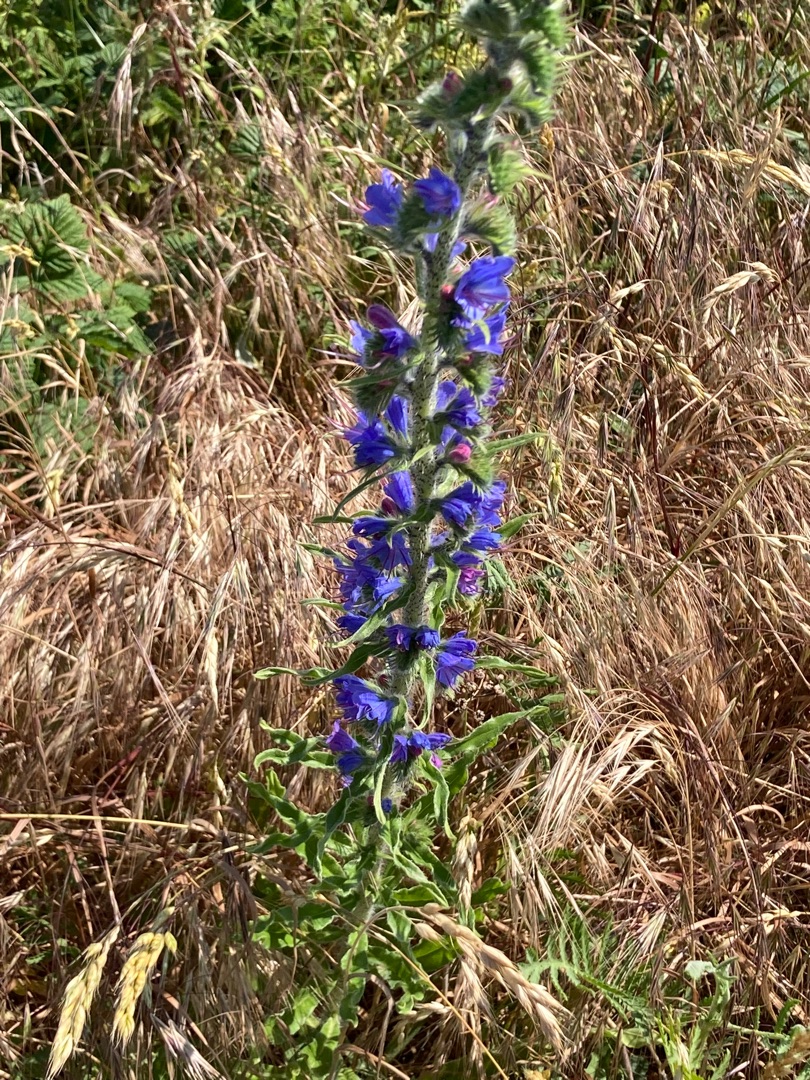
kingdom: Plantae
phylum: Tracheophyta
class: Magnoliopsida
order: Boraginales
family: Boraginaceae
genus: Echium
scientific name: Echium vulgare
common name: Slangehoved
